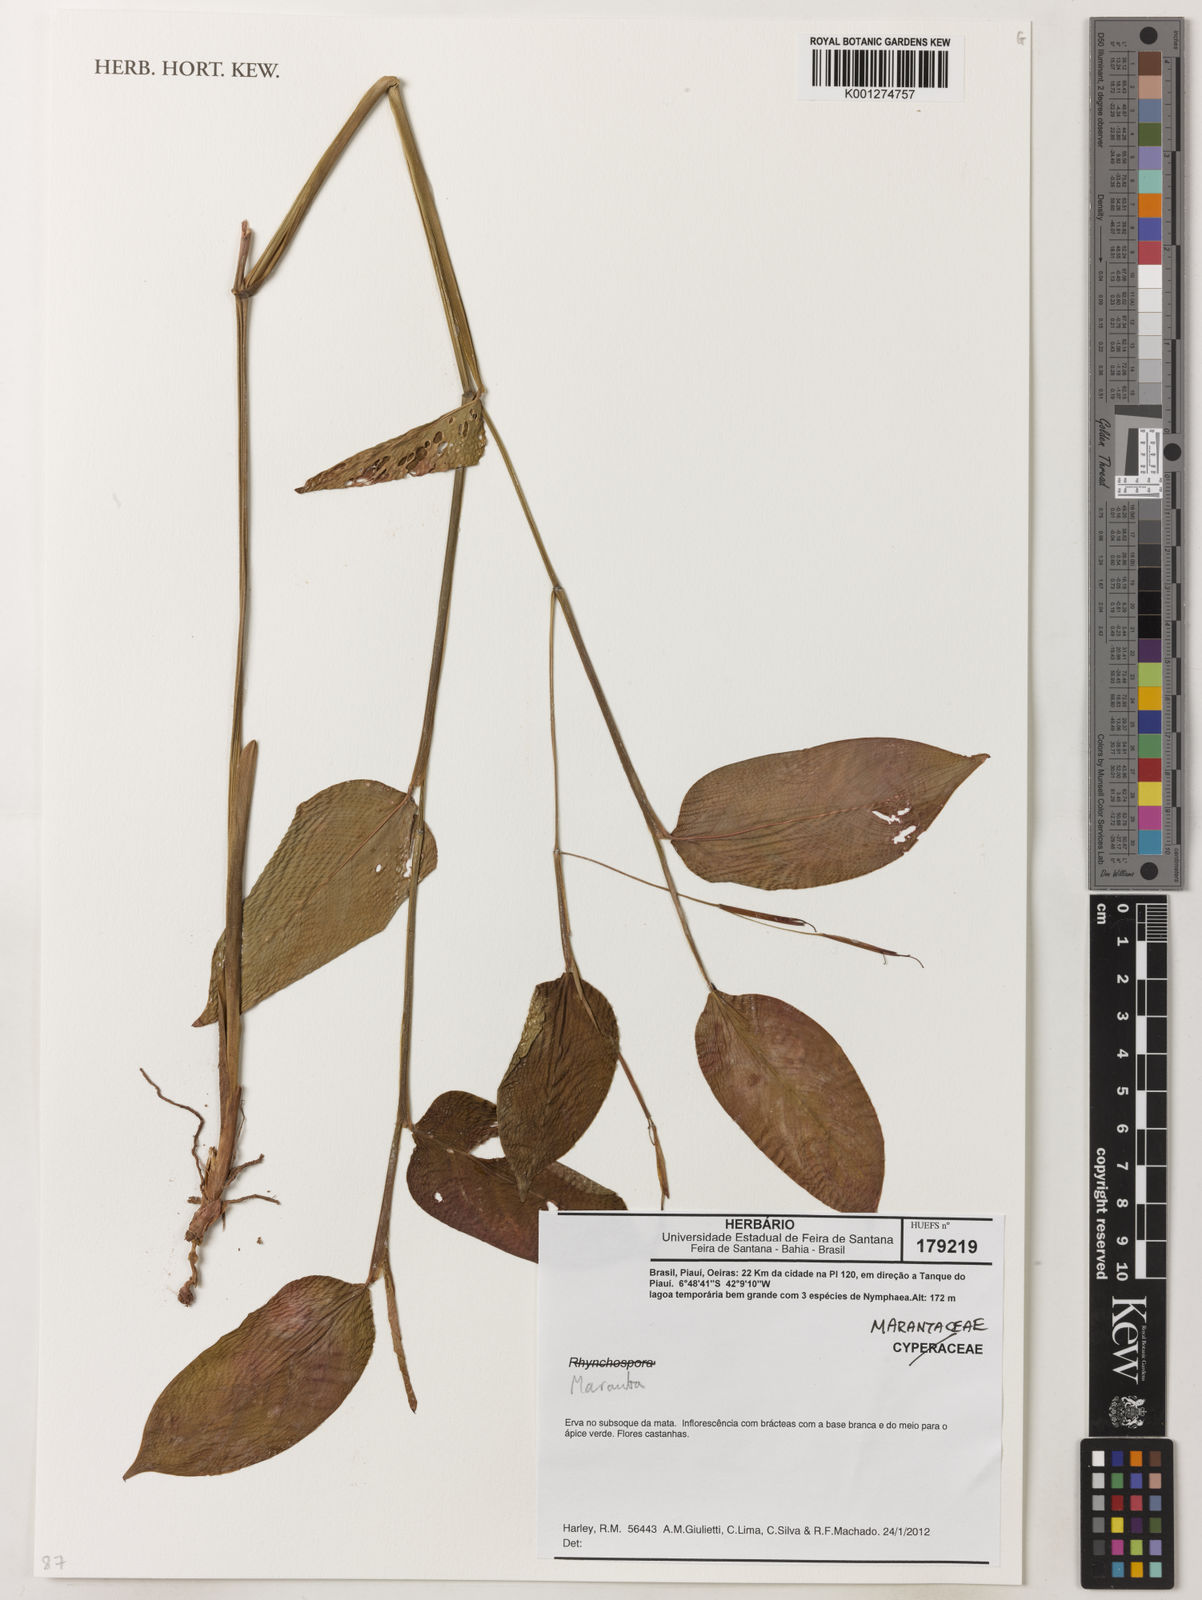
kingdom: Plantae
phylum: Tracheophyta
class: Liliopsida
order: Zingiberales
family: Marantaceae
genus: Maranta
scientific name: Maranta
